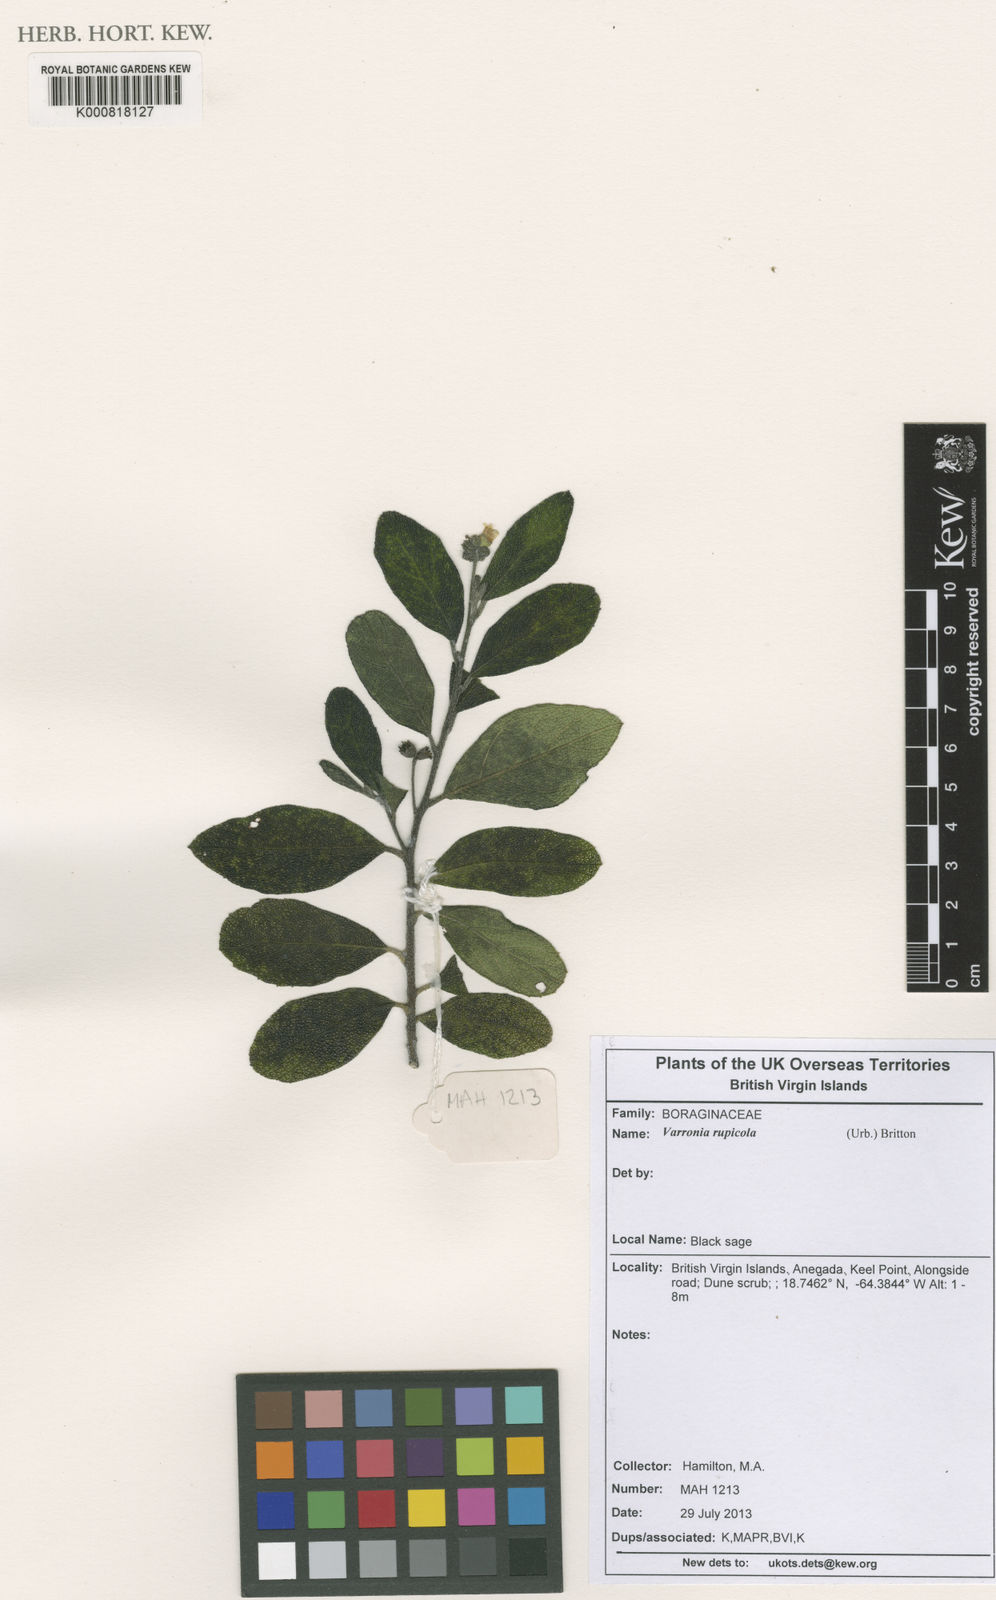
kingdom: Plantae
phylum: Tracheophyta
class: Magnoliopsida
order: Boraginales
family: Cordiaceae
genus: Varronia
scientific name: Varronia rupicola
